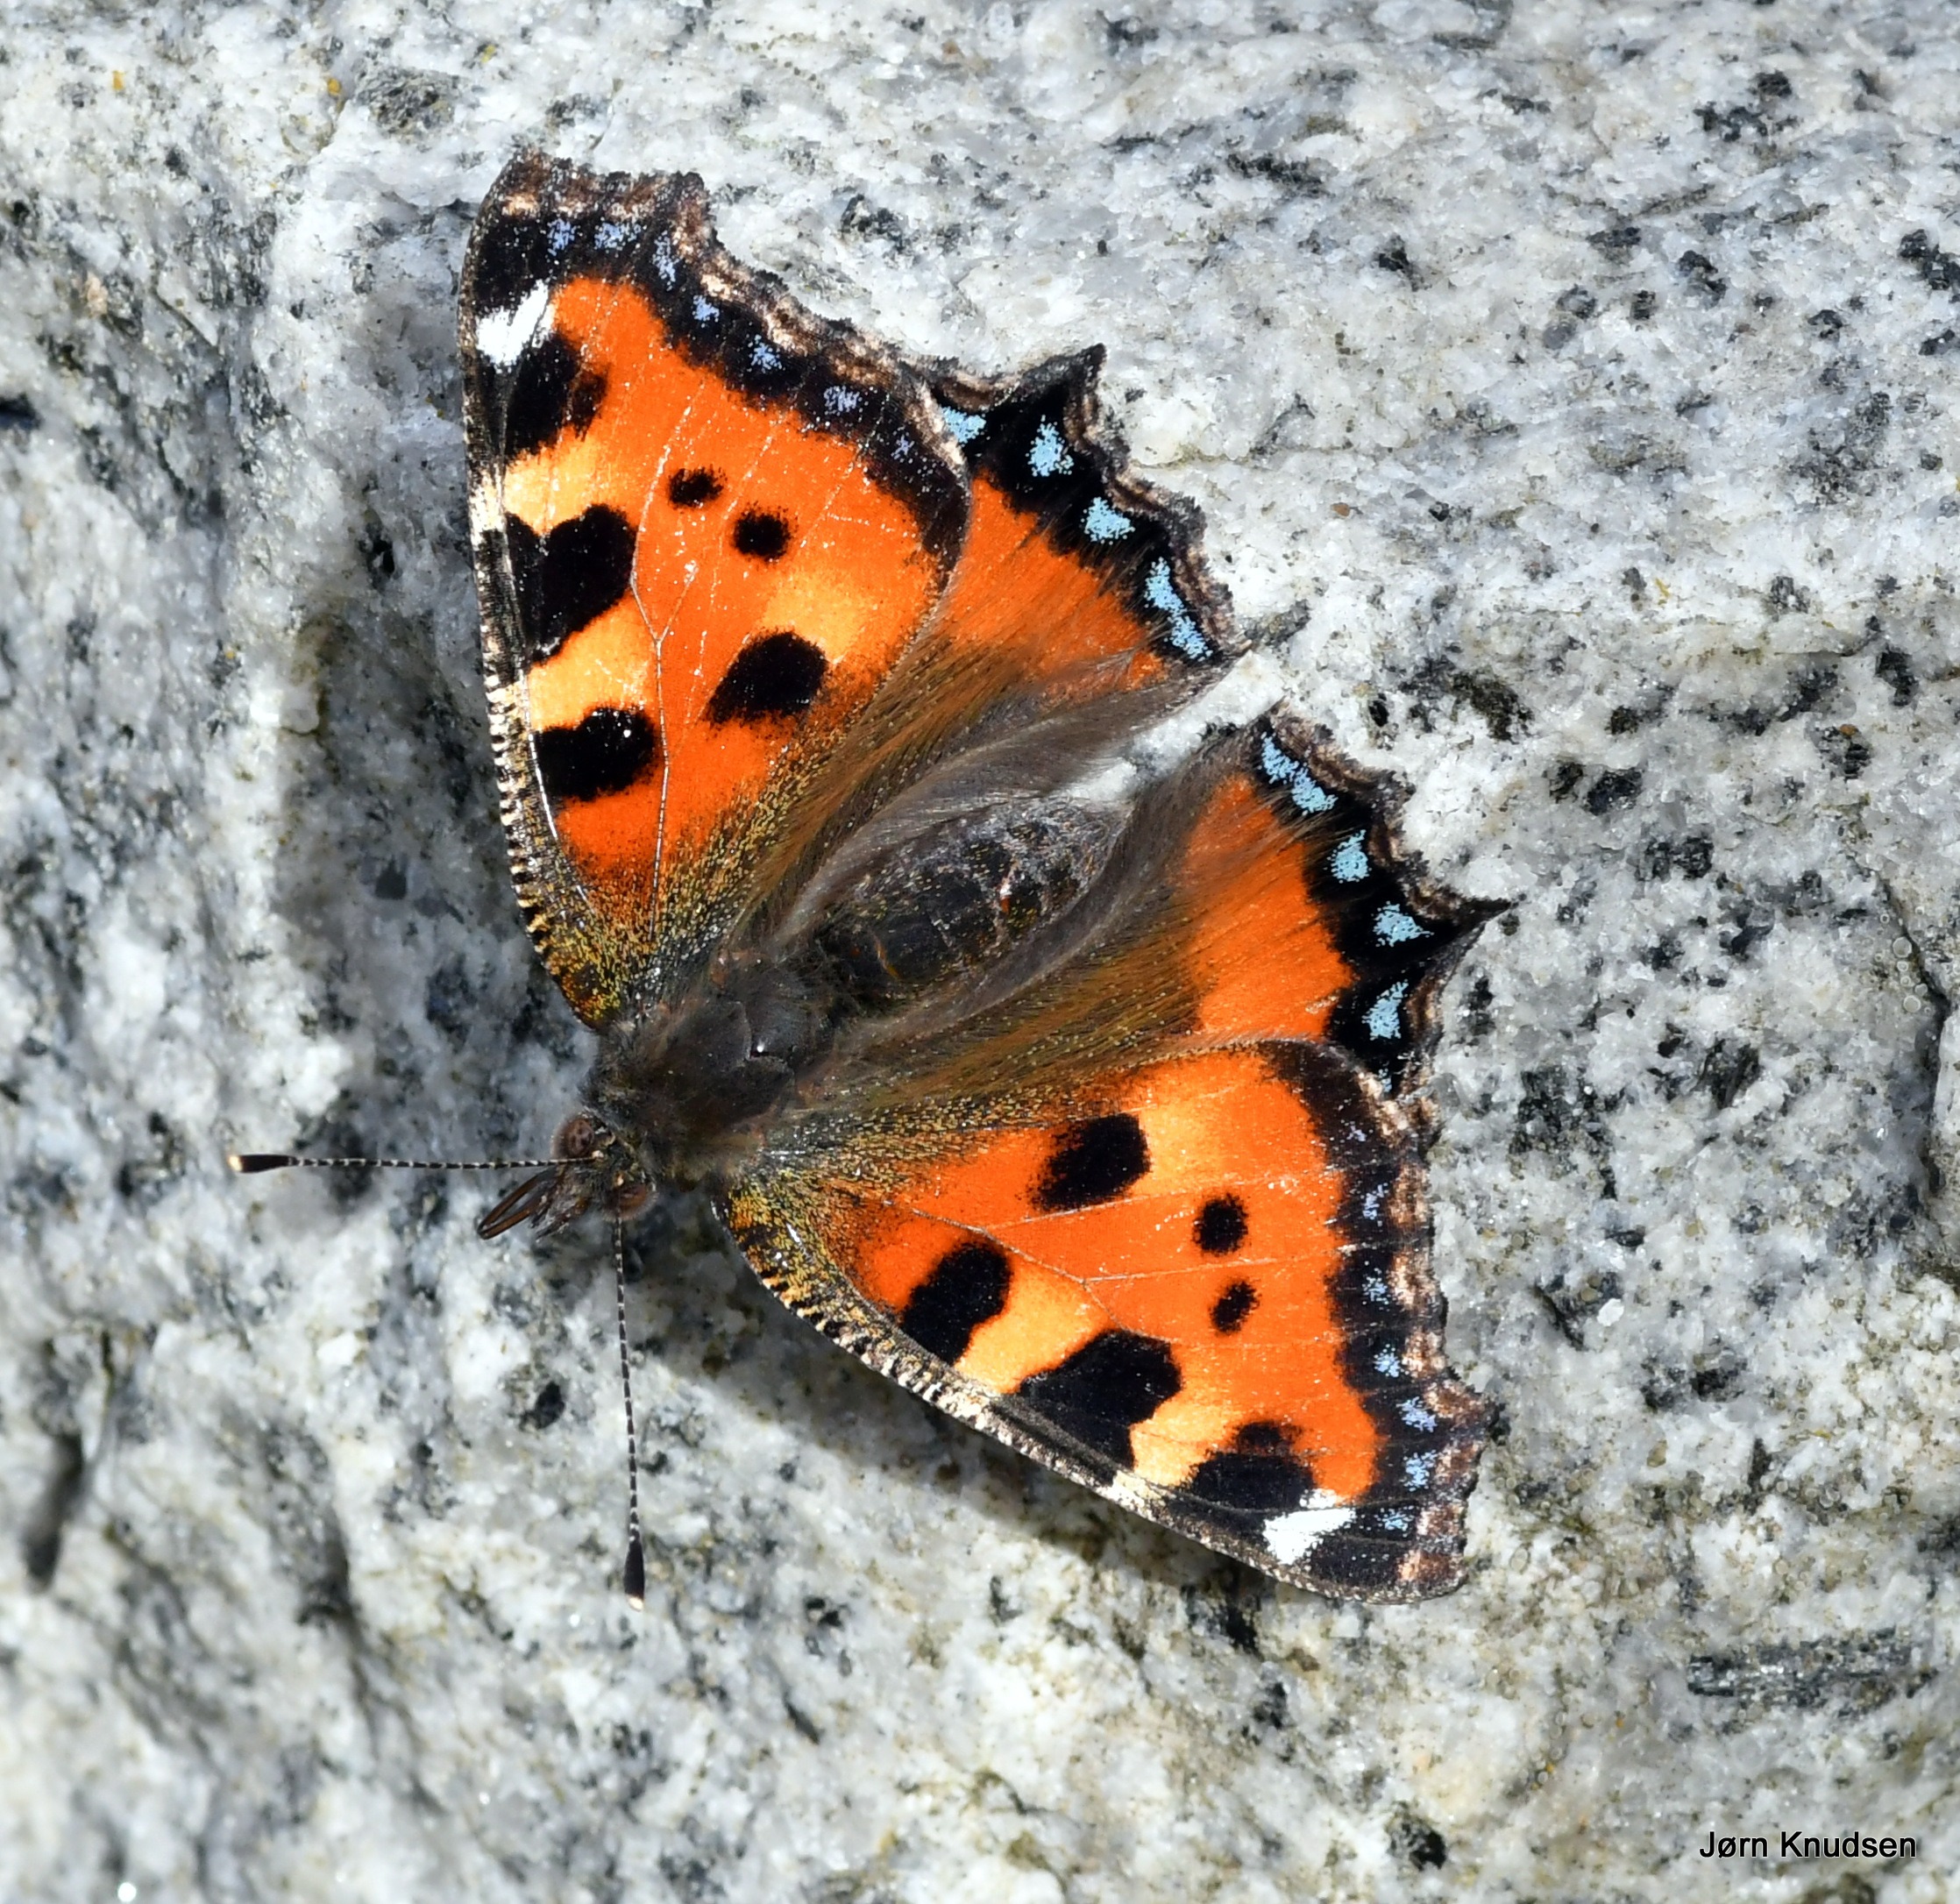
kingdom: Animalia
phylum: Arthropoda
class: Insecta
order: Lepidoptera
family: Nymphalidae
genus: Aglais
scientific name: Aglais urticae
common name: Nældens takvinge
